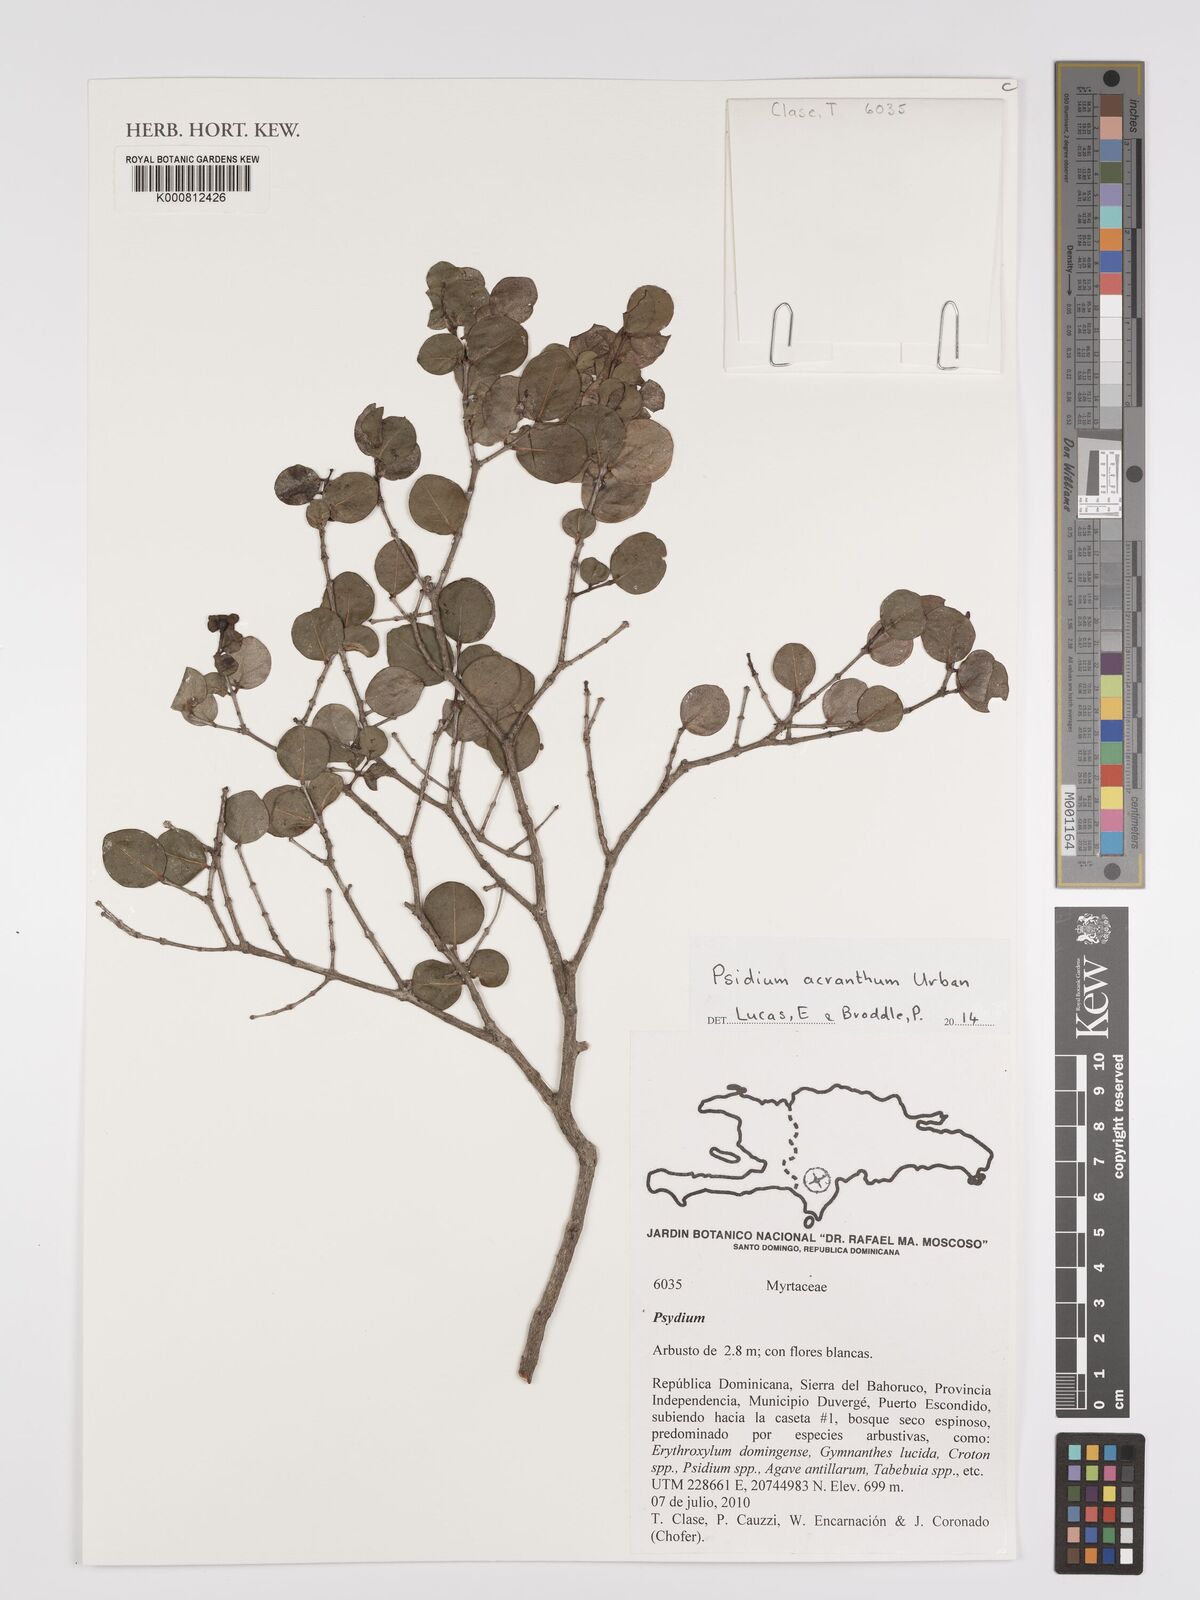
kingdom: Plantae
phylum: Tracheophyta
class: Magnoliopsida
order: Myrtales
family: Myrtaceae
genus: Psidium
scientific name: Psidium acranthum
